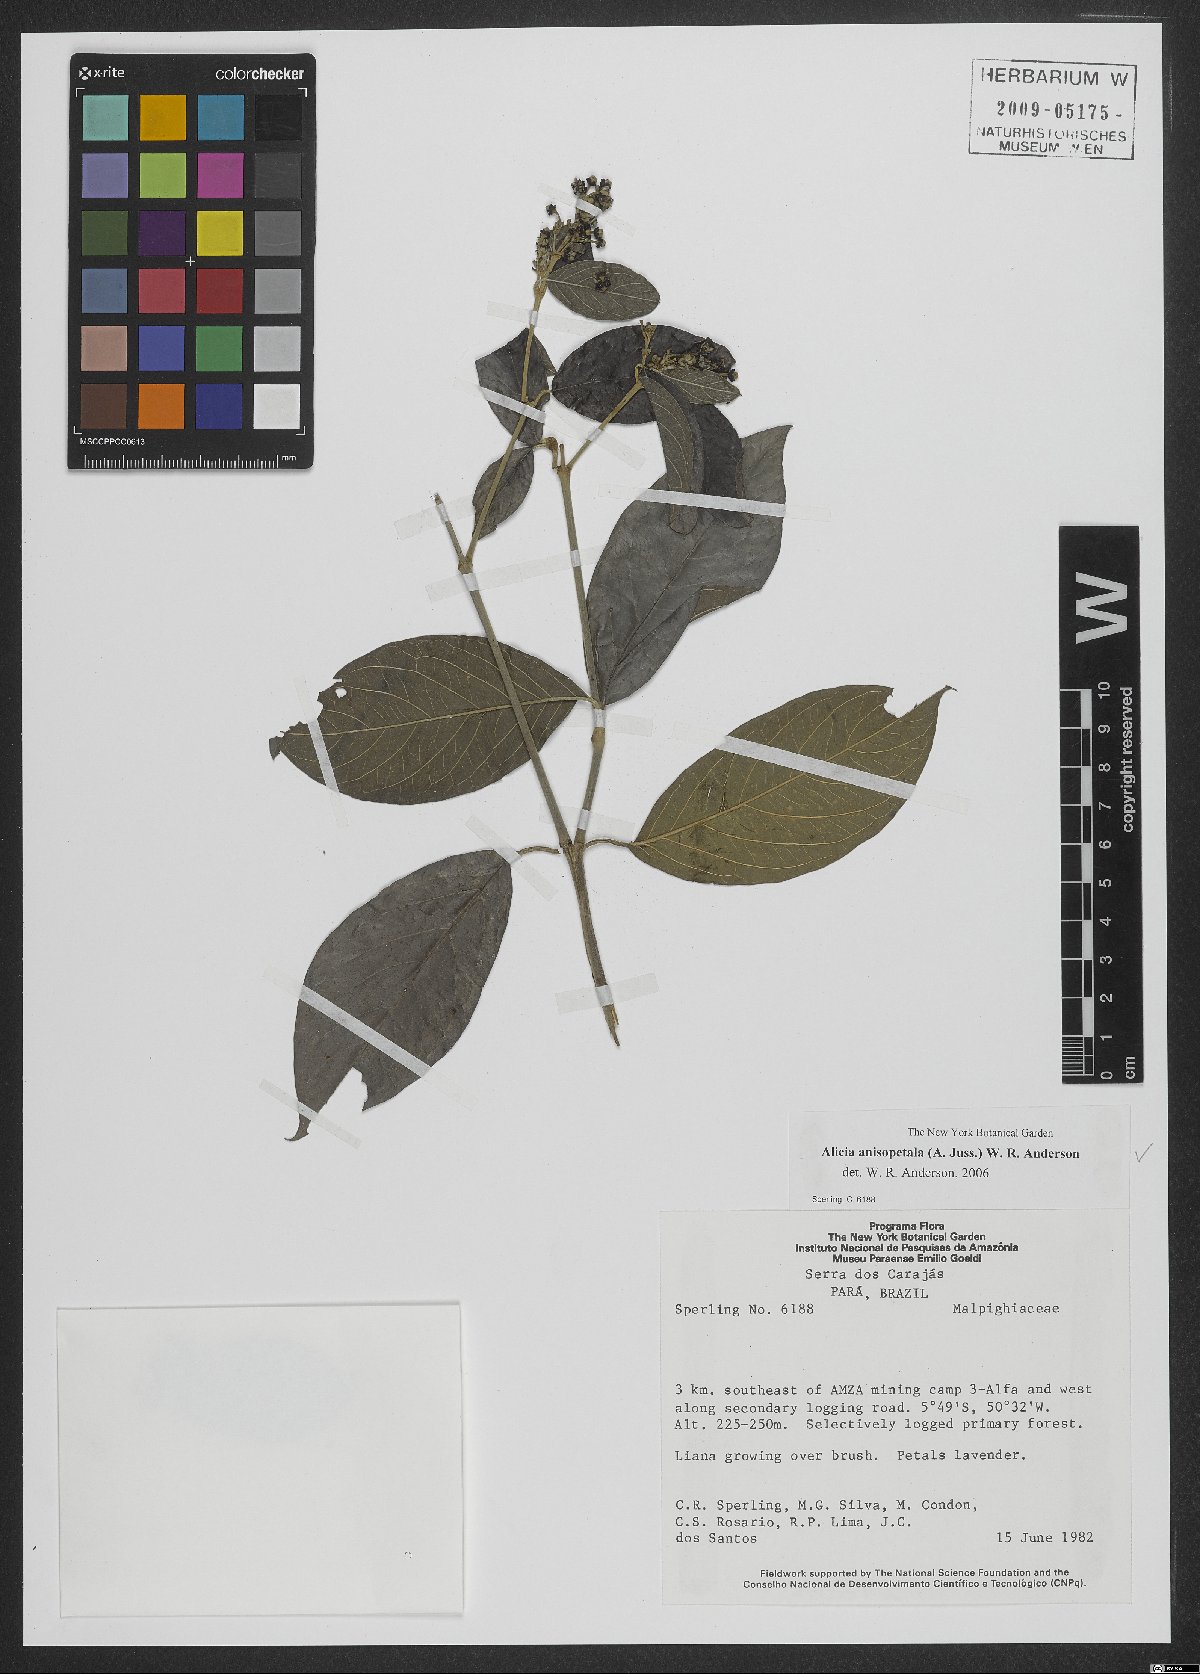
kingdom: Plantae
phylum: Tracheophyta
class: Magnoliopsida
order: Malpighiales
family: Malpighiaceae
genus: Alicia
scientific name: Alicia anisopetala
